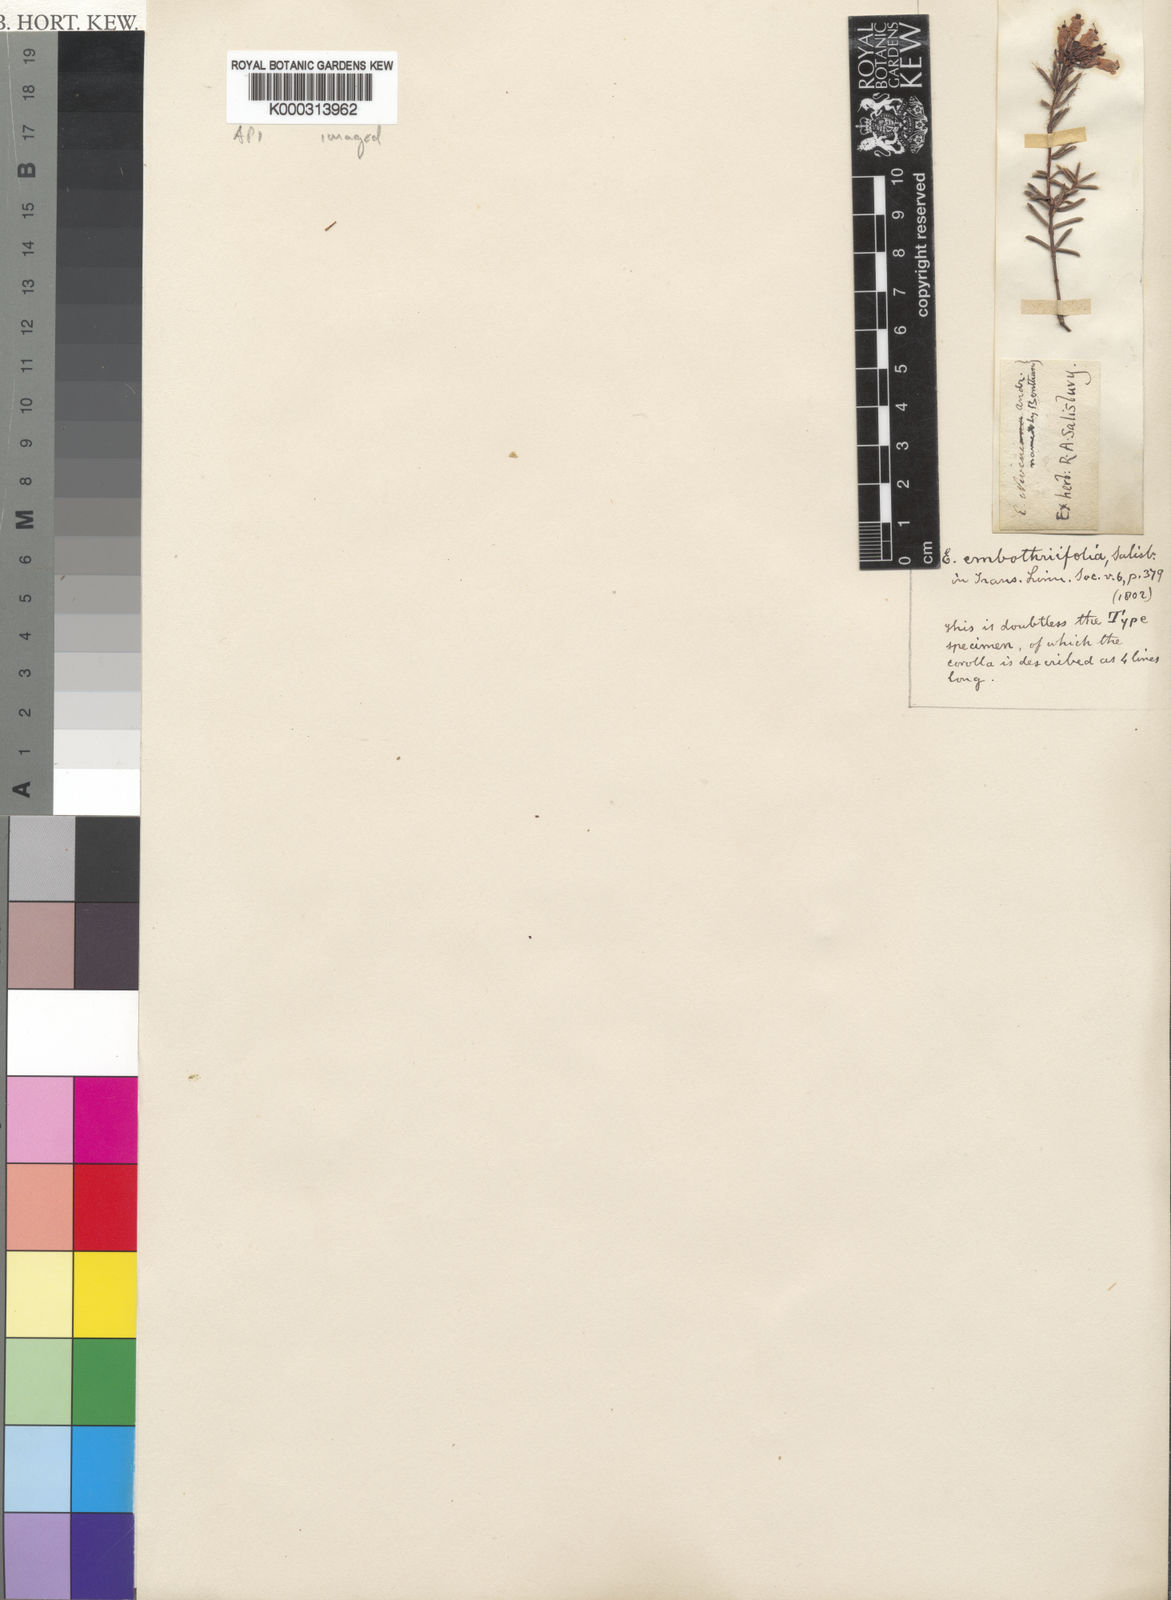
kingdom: Plantae
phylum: Tracheophyta
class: Magnoliopsida
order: Ericales
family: Ericaceae
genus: Erica
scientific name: Erica embothriifolia
